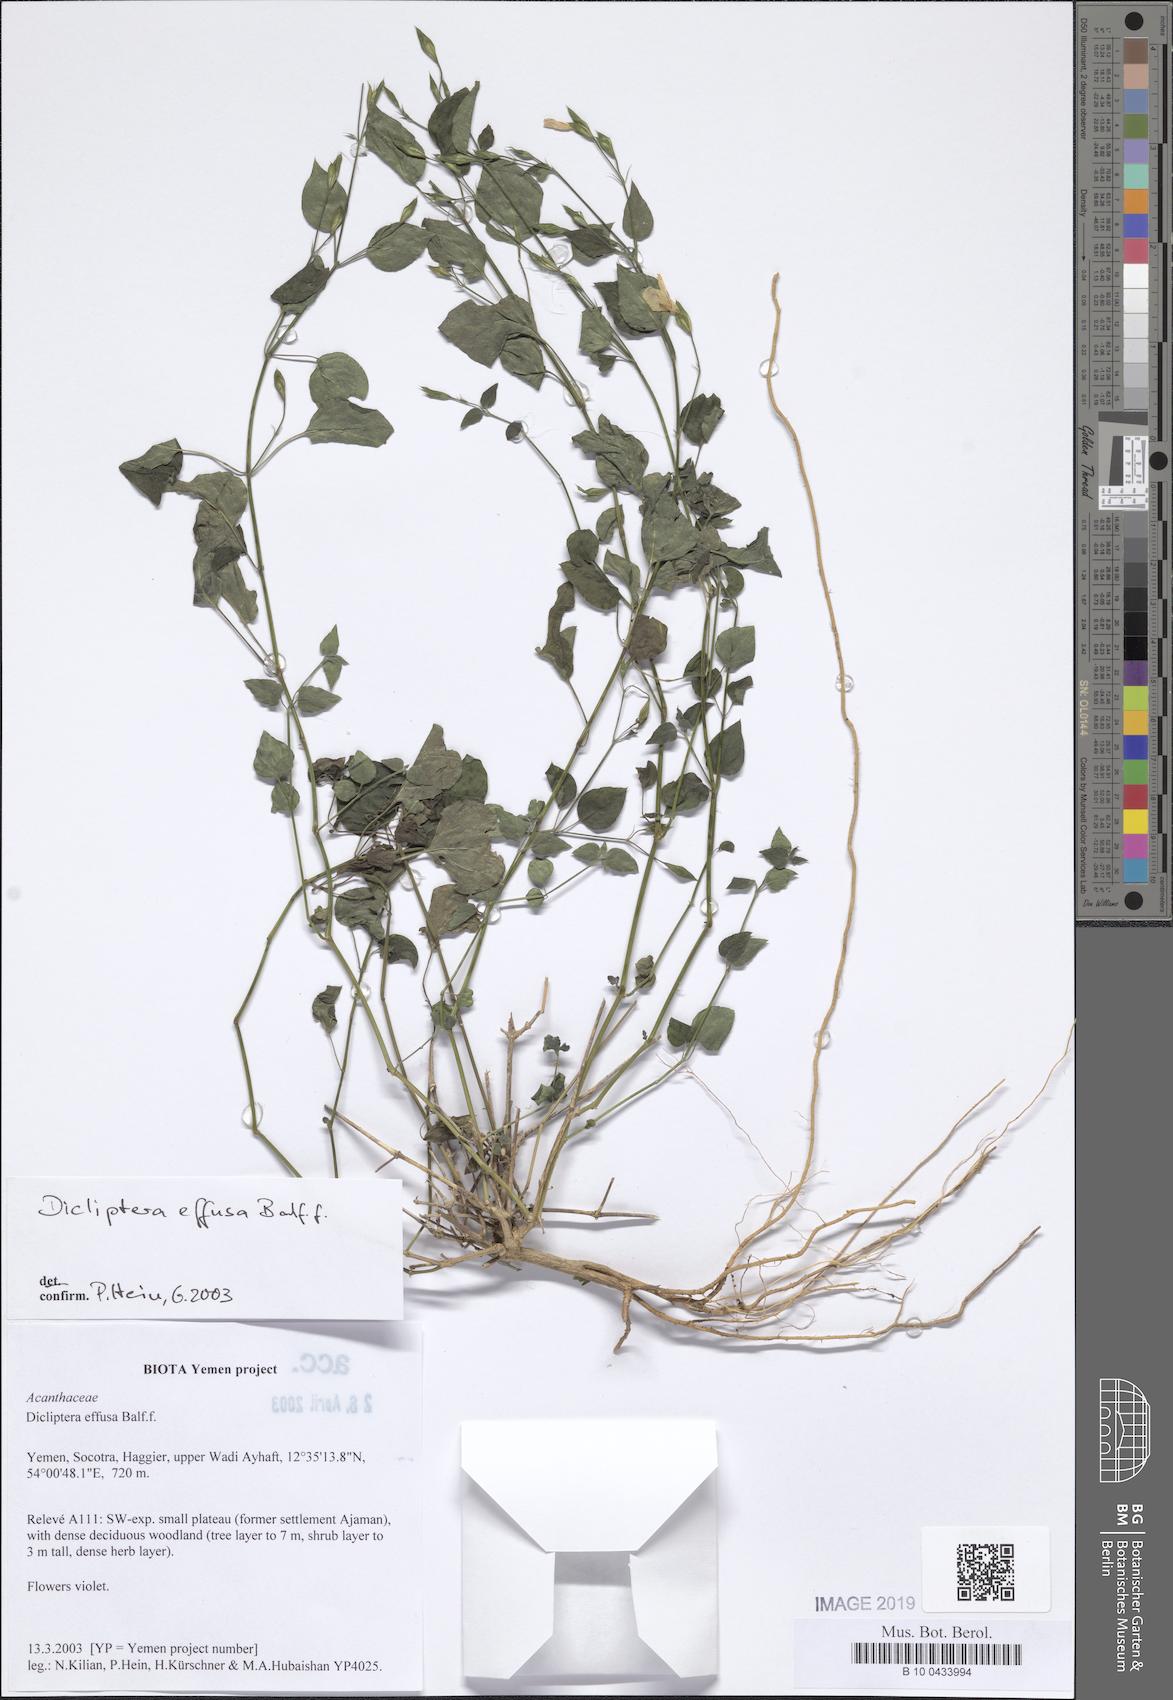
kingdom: Plantae
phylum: Tracheophyta
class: Magnoliopsida
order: Lamiales
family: Acanthaceae
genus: Dicliptera
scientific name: Dicliptera effusa
